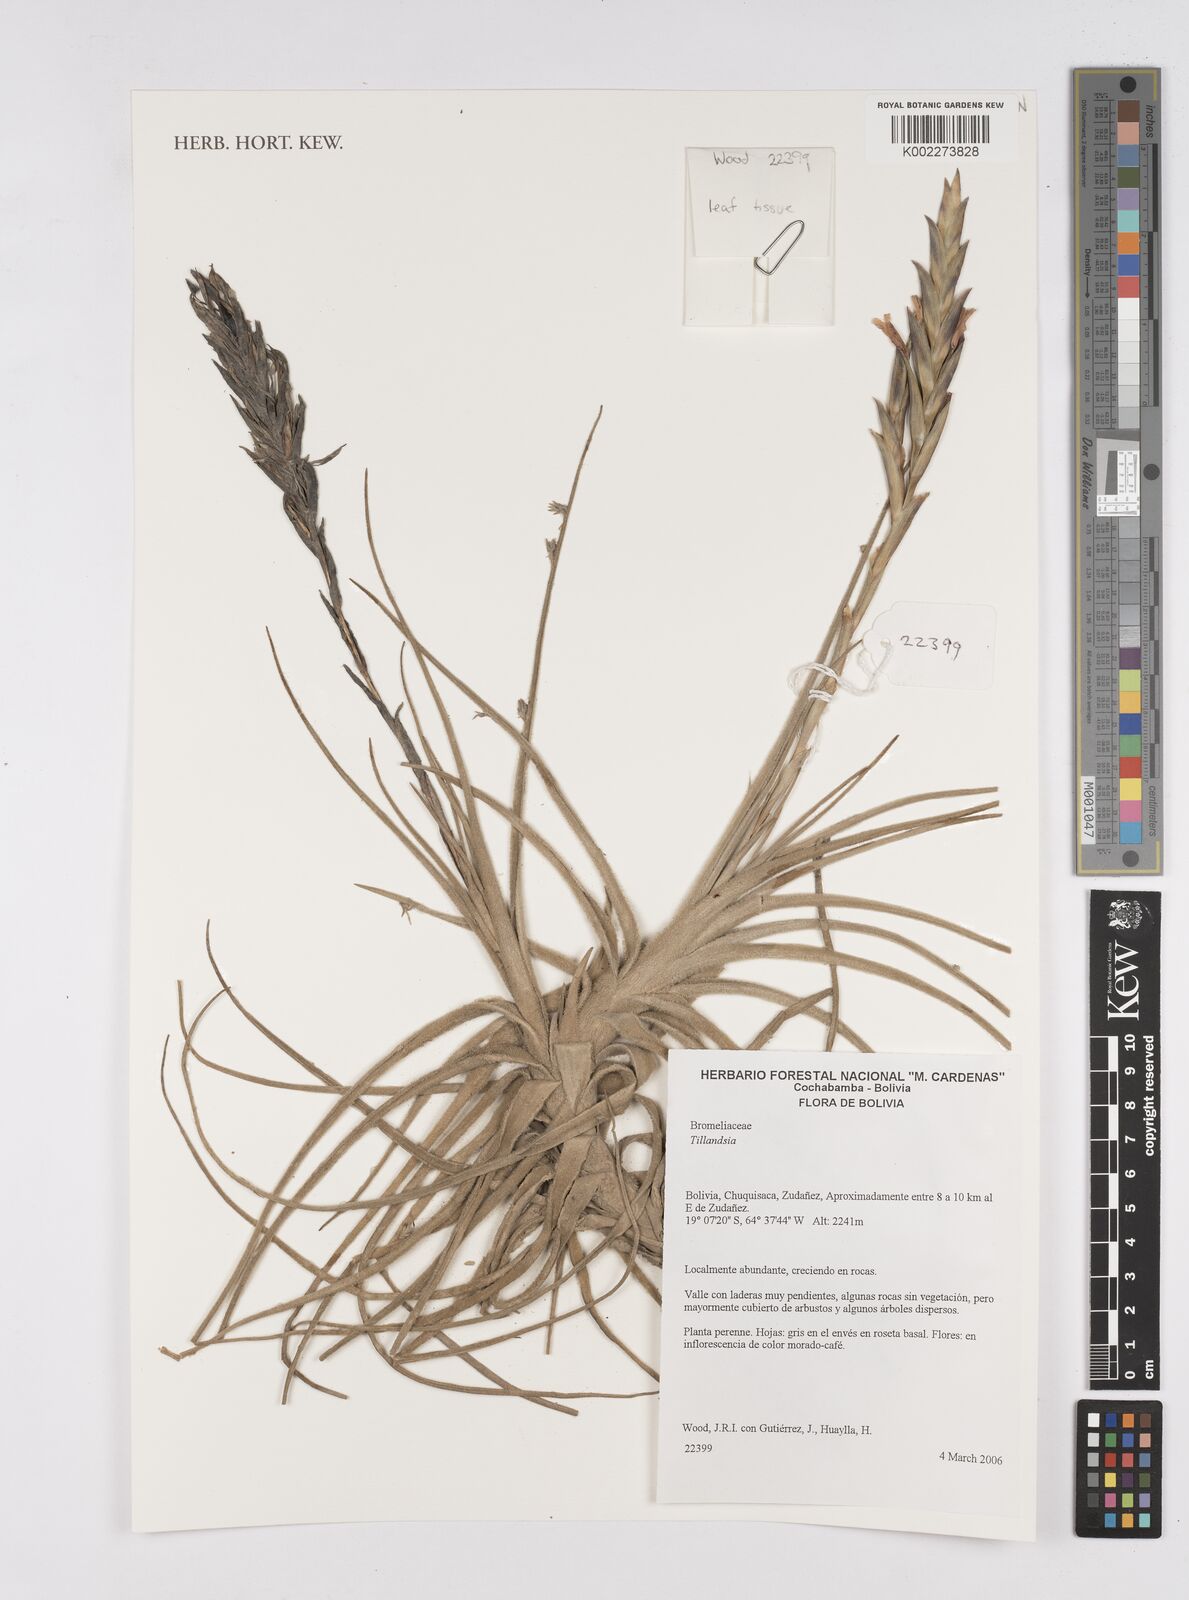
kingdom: Plantae
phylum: Tracheophyta
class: Liliopsida
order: Poales
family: Bromeliaceae
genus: Tillandsia
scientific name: Tillandsia
